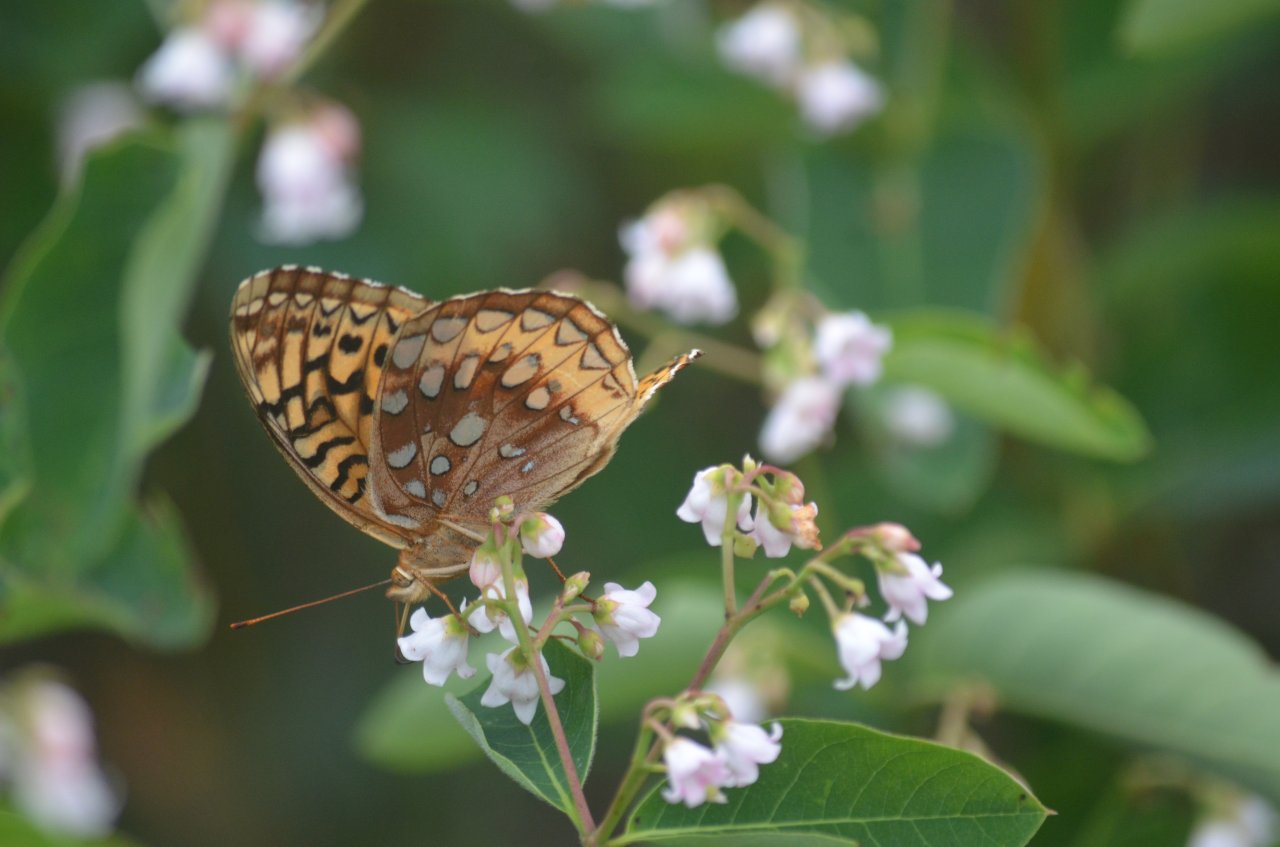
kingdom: Animalia
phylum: Arthropoda
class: Insecta
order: Lepidoptera
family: Nymphalidae
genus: Speyeria
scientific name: Speyeria cybele
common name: Great Spangled Fritillary
